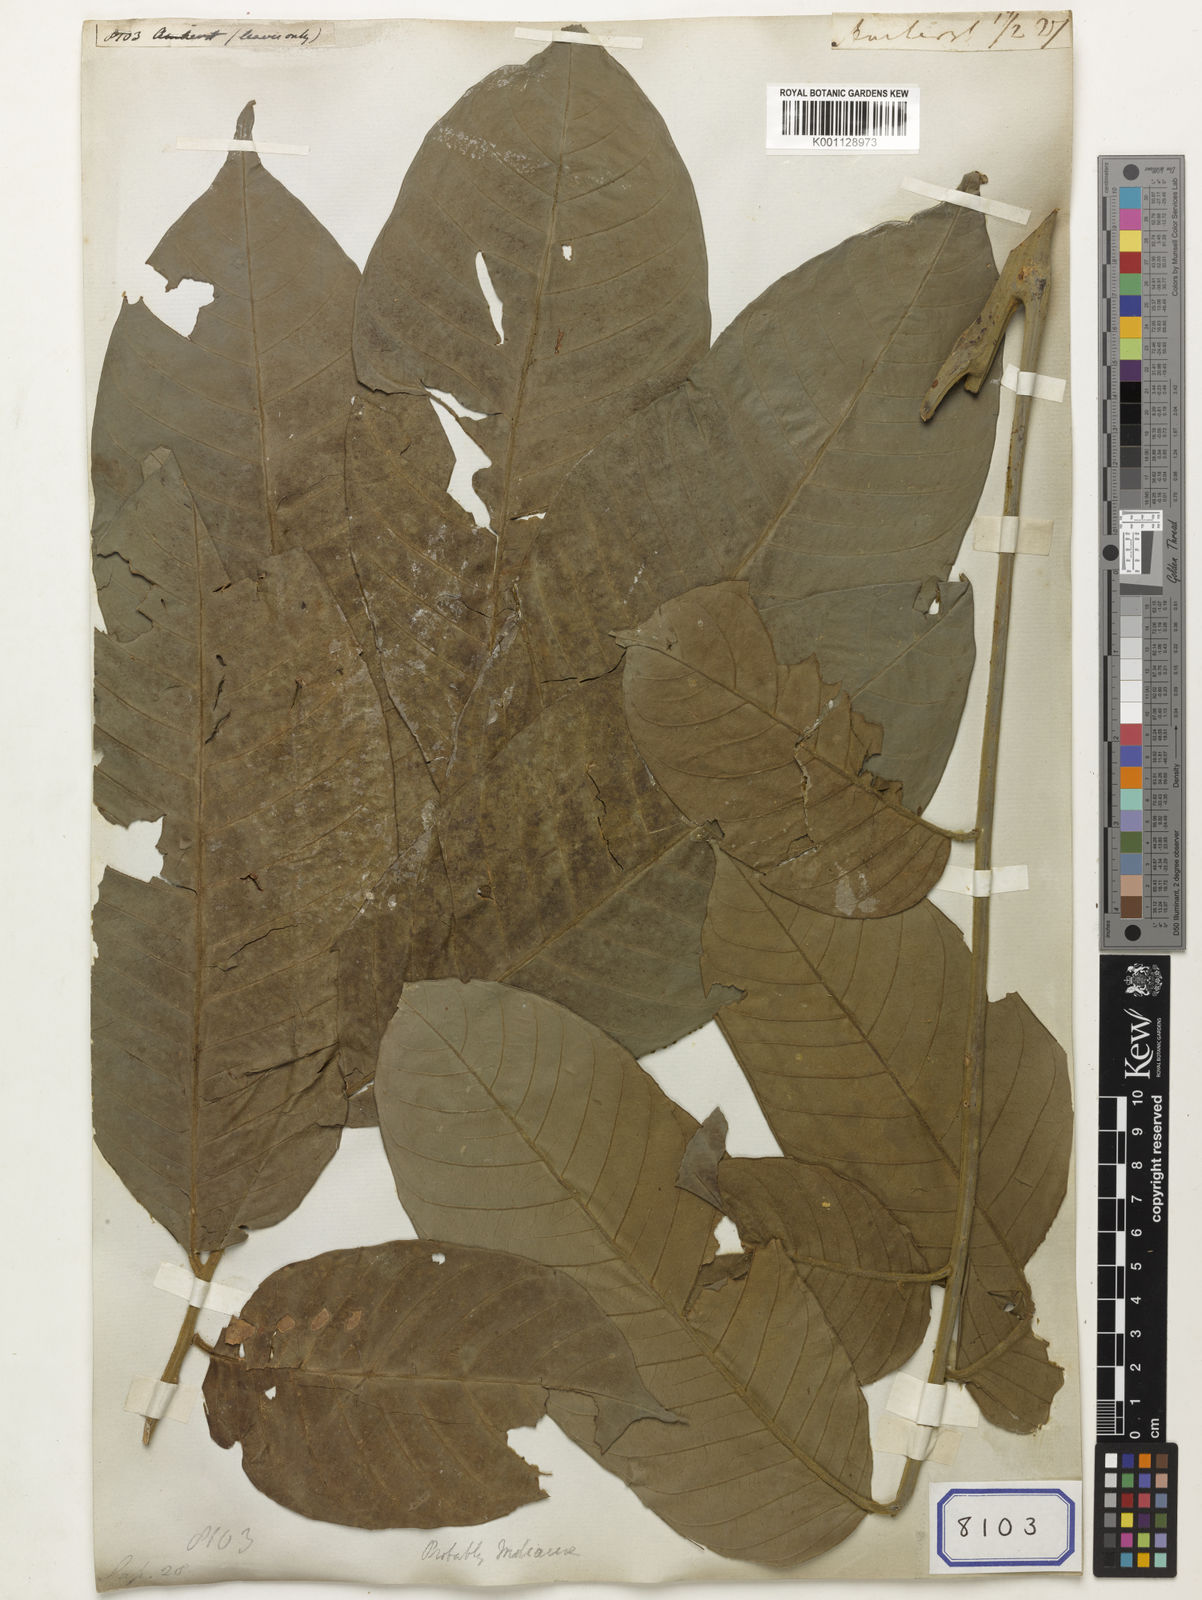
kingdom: Plantae
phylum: Tracheophyta
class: Magnoliopsida
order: Sapindales
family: Sapindaceae
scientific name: Sapindaceae
